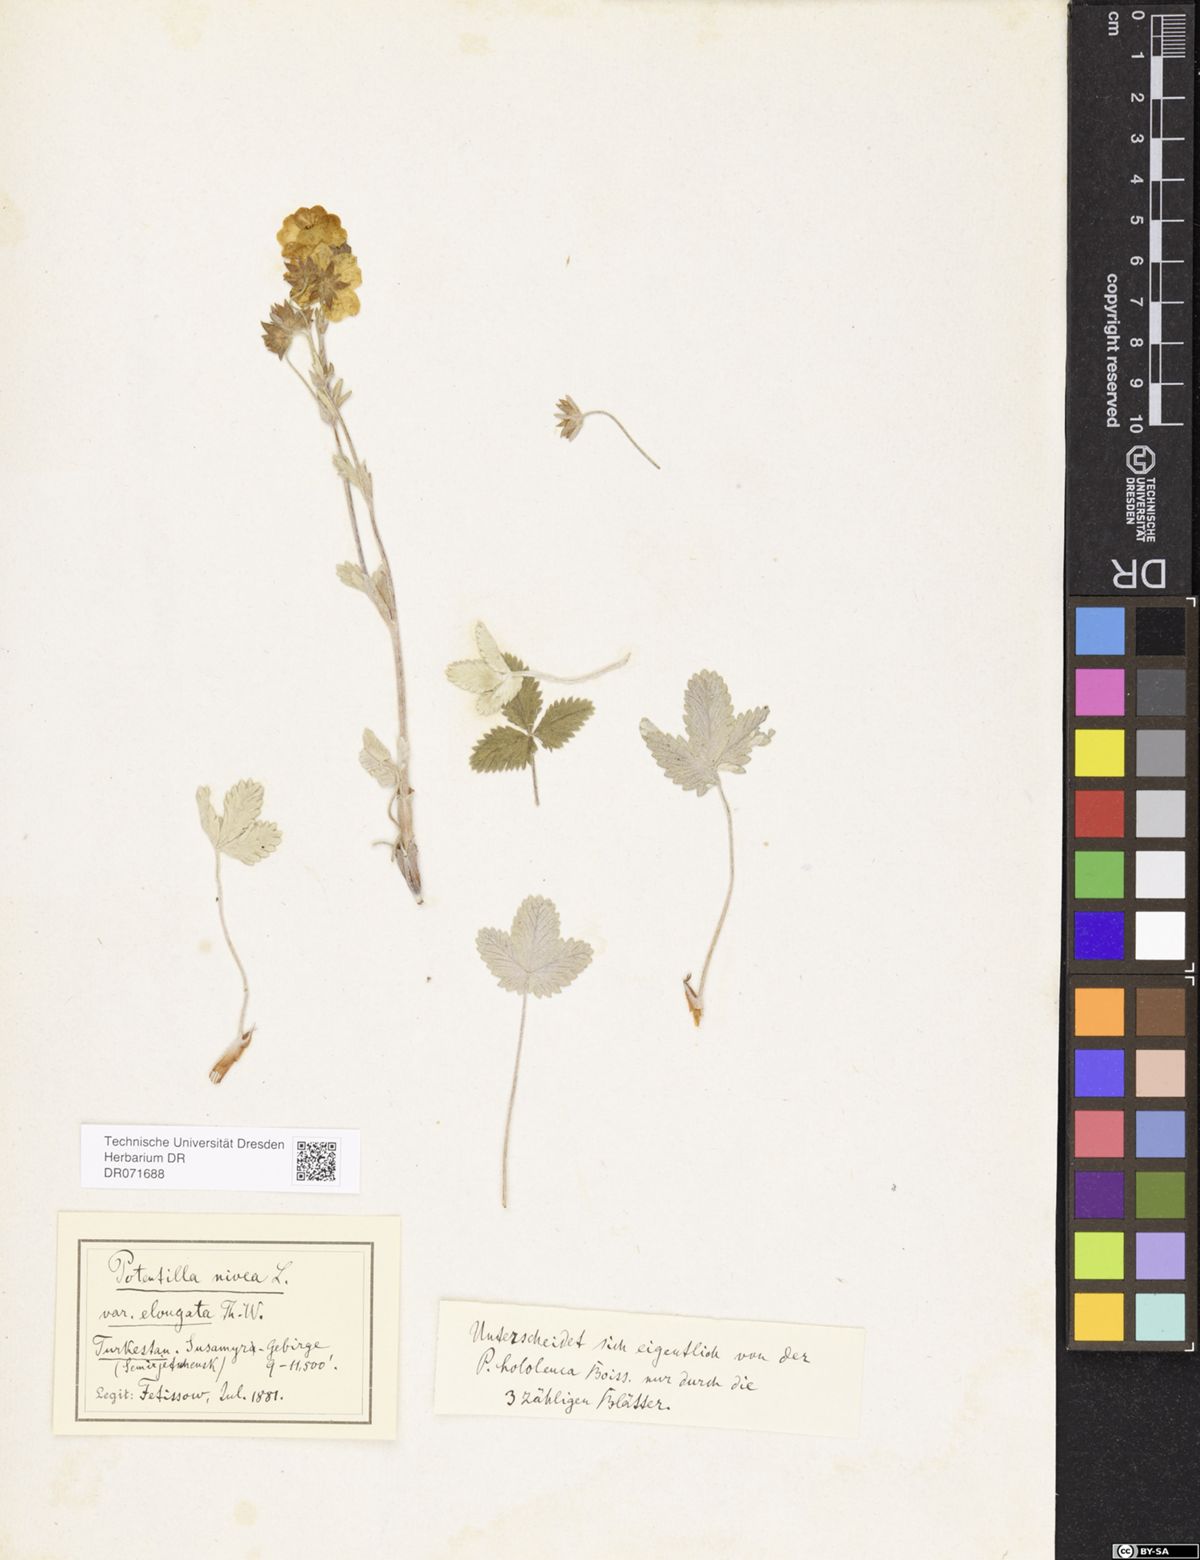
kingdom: Plantae
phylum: Tracheophyta
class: Magnoliopsida
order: Rosales
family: Rosaceae
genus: Potentilla
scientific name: Potentilla crebridens
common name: Congested cinquefoil
